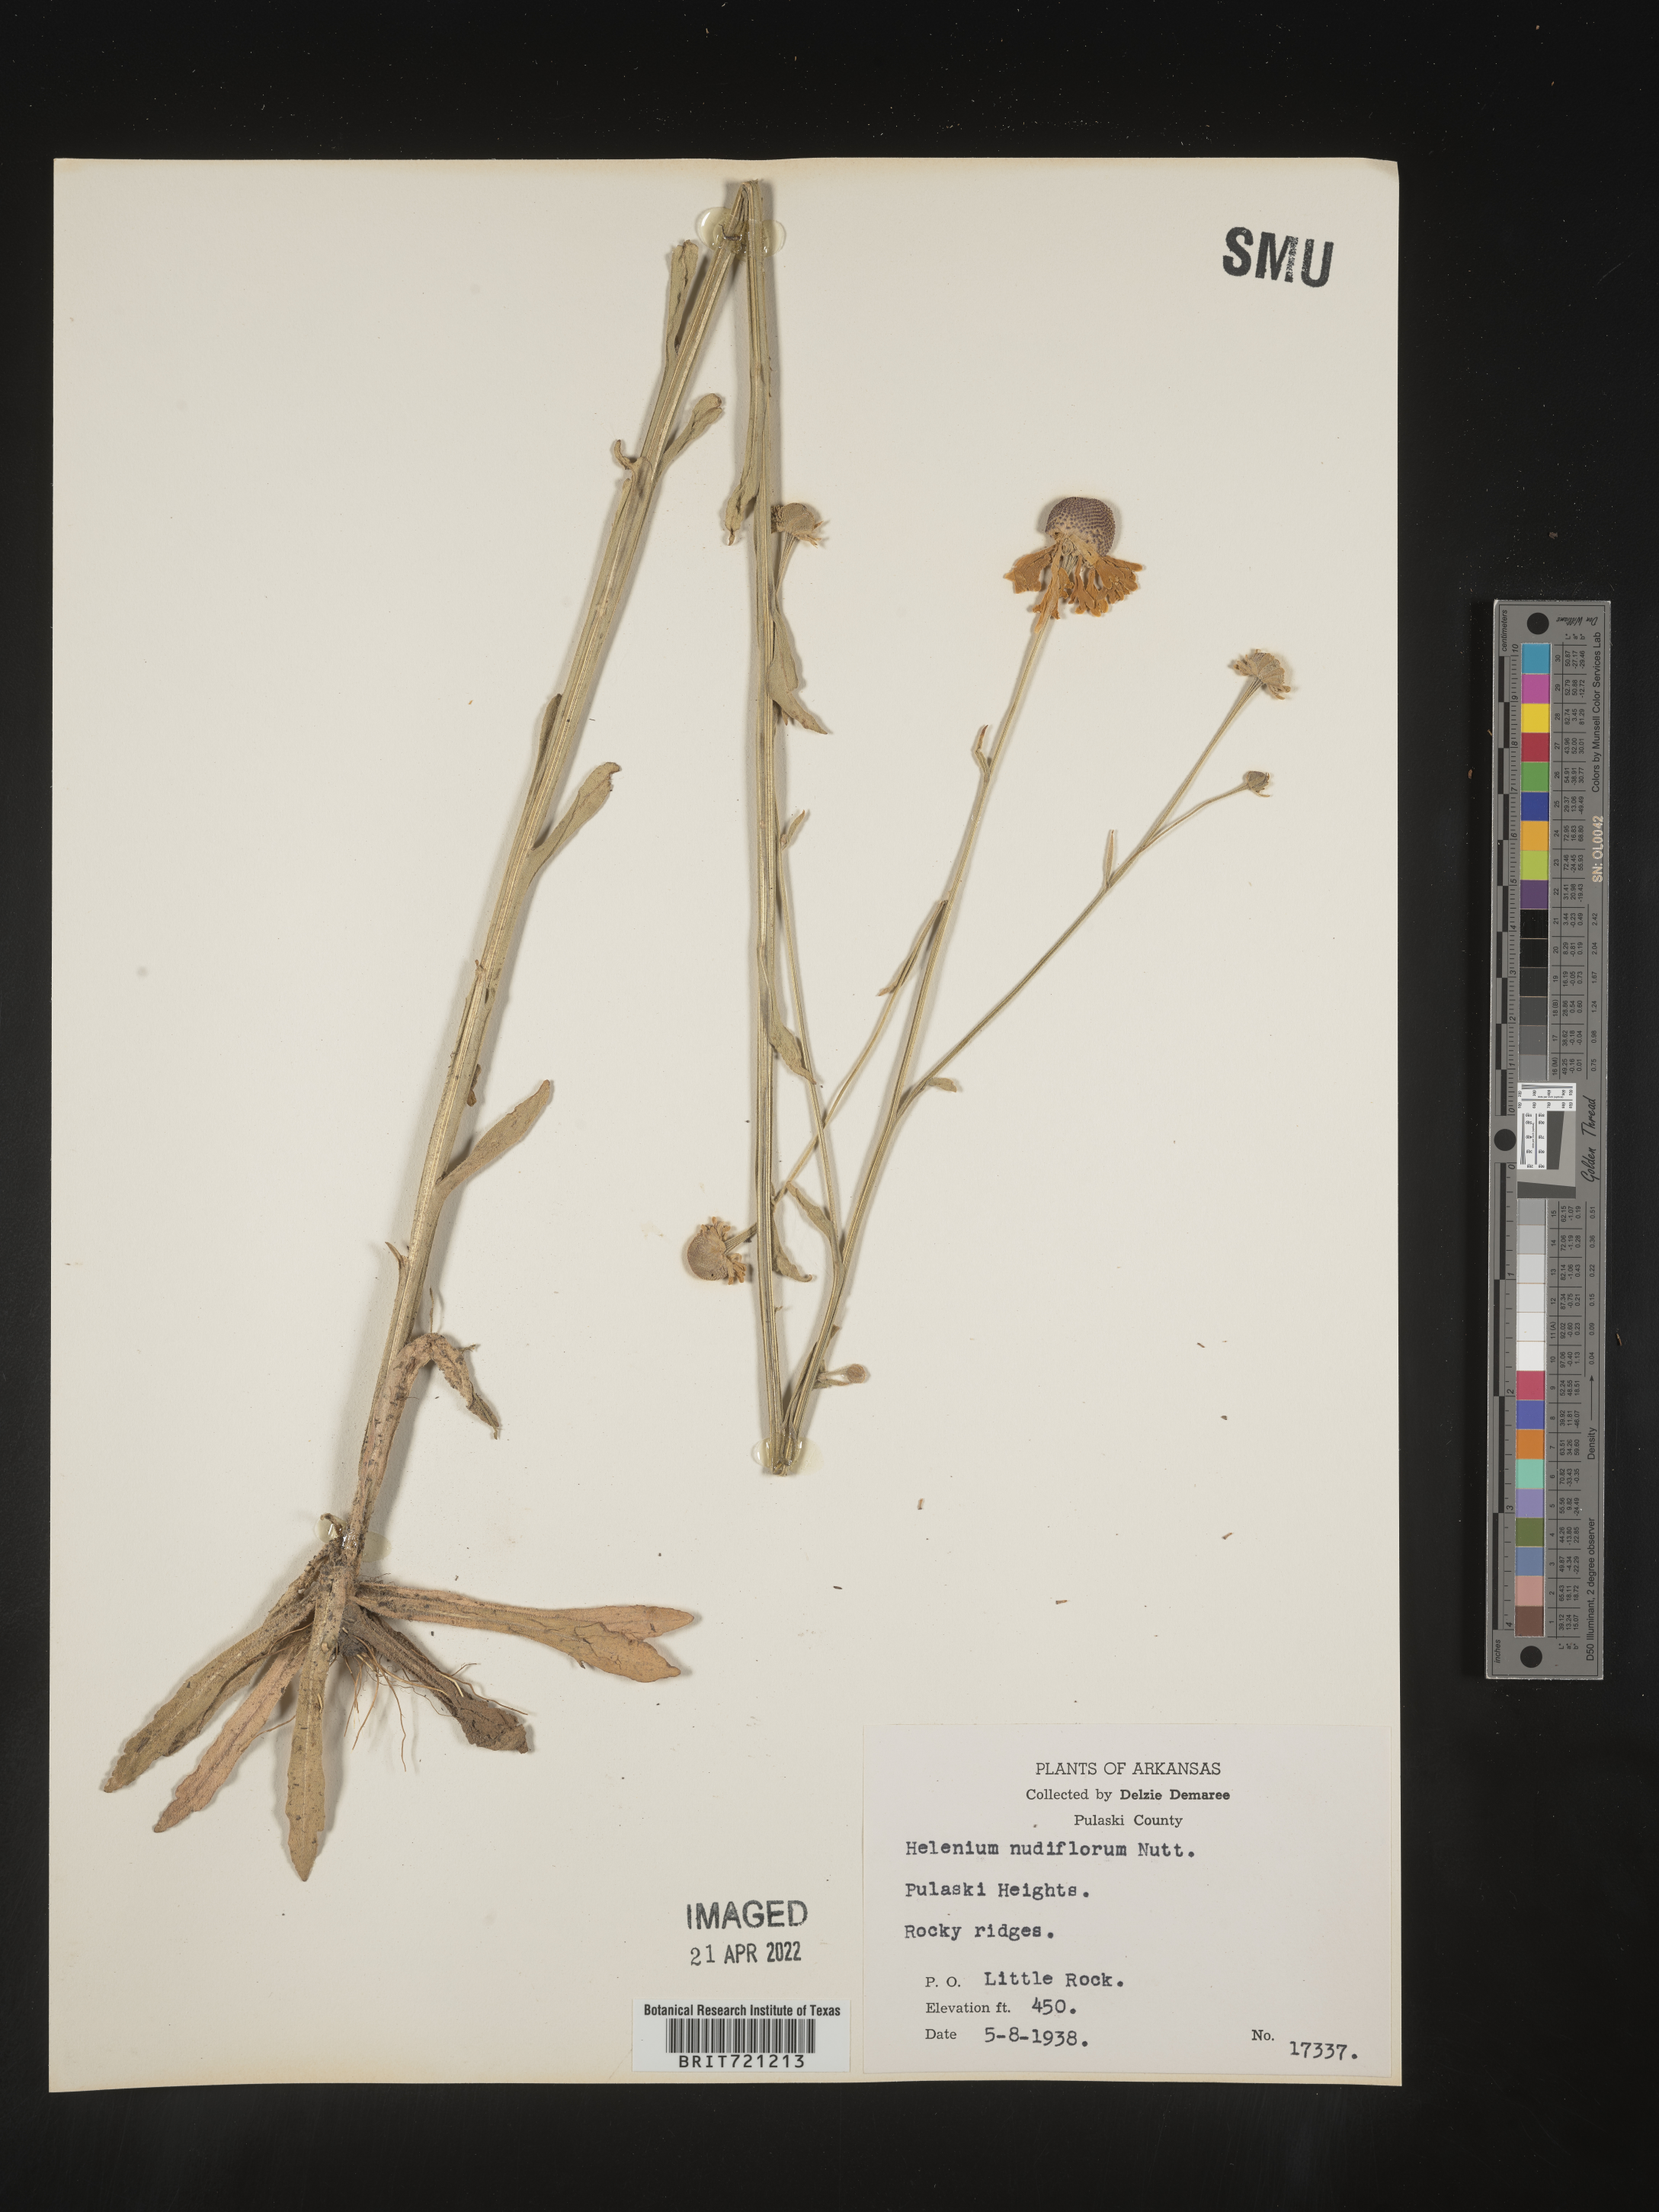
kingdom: Plantae
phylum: Tracheophyta
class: Magnoliopsida
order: Asterales
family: Asteraceae
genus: Helenium
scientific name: Helenium flexuosum
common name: Naked-flowered sneezeweed
